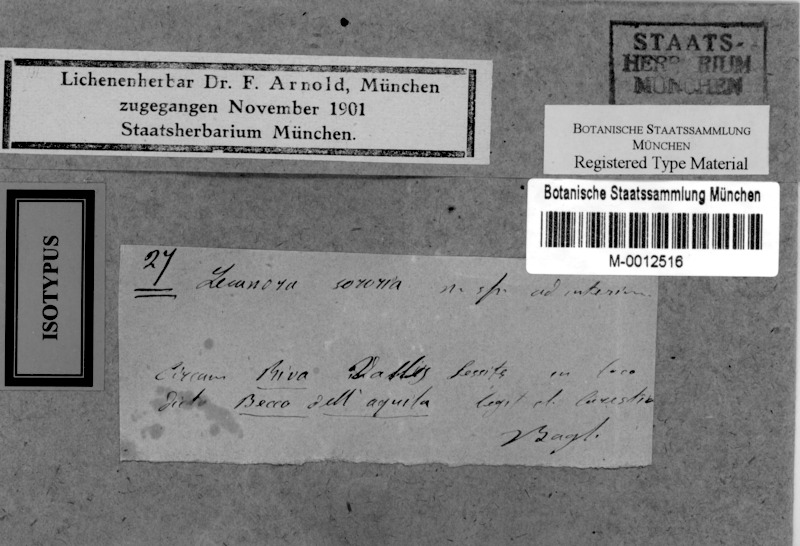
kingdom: Fungi
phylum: Ascomycota
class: Lecanoromycetes
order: Lecanorales
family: Lecanoraceae
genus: Lecanora
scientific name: Lecanora
